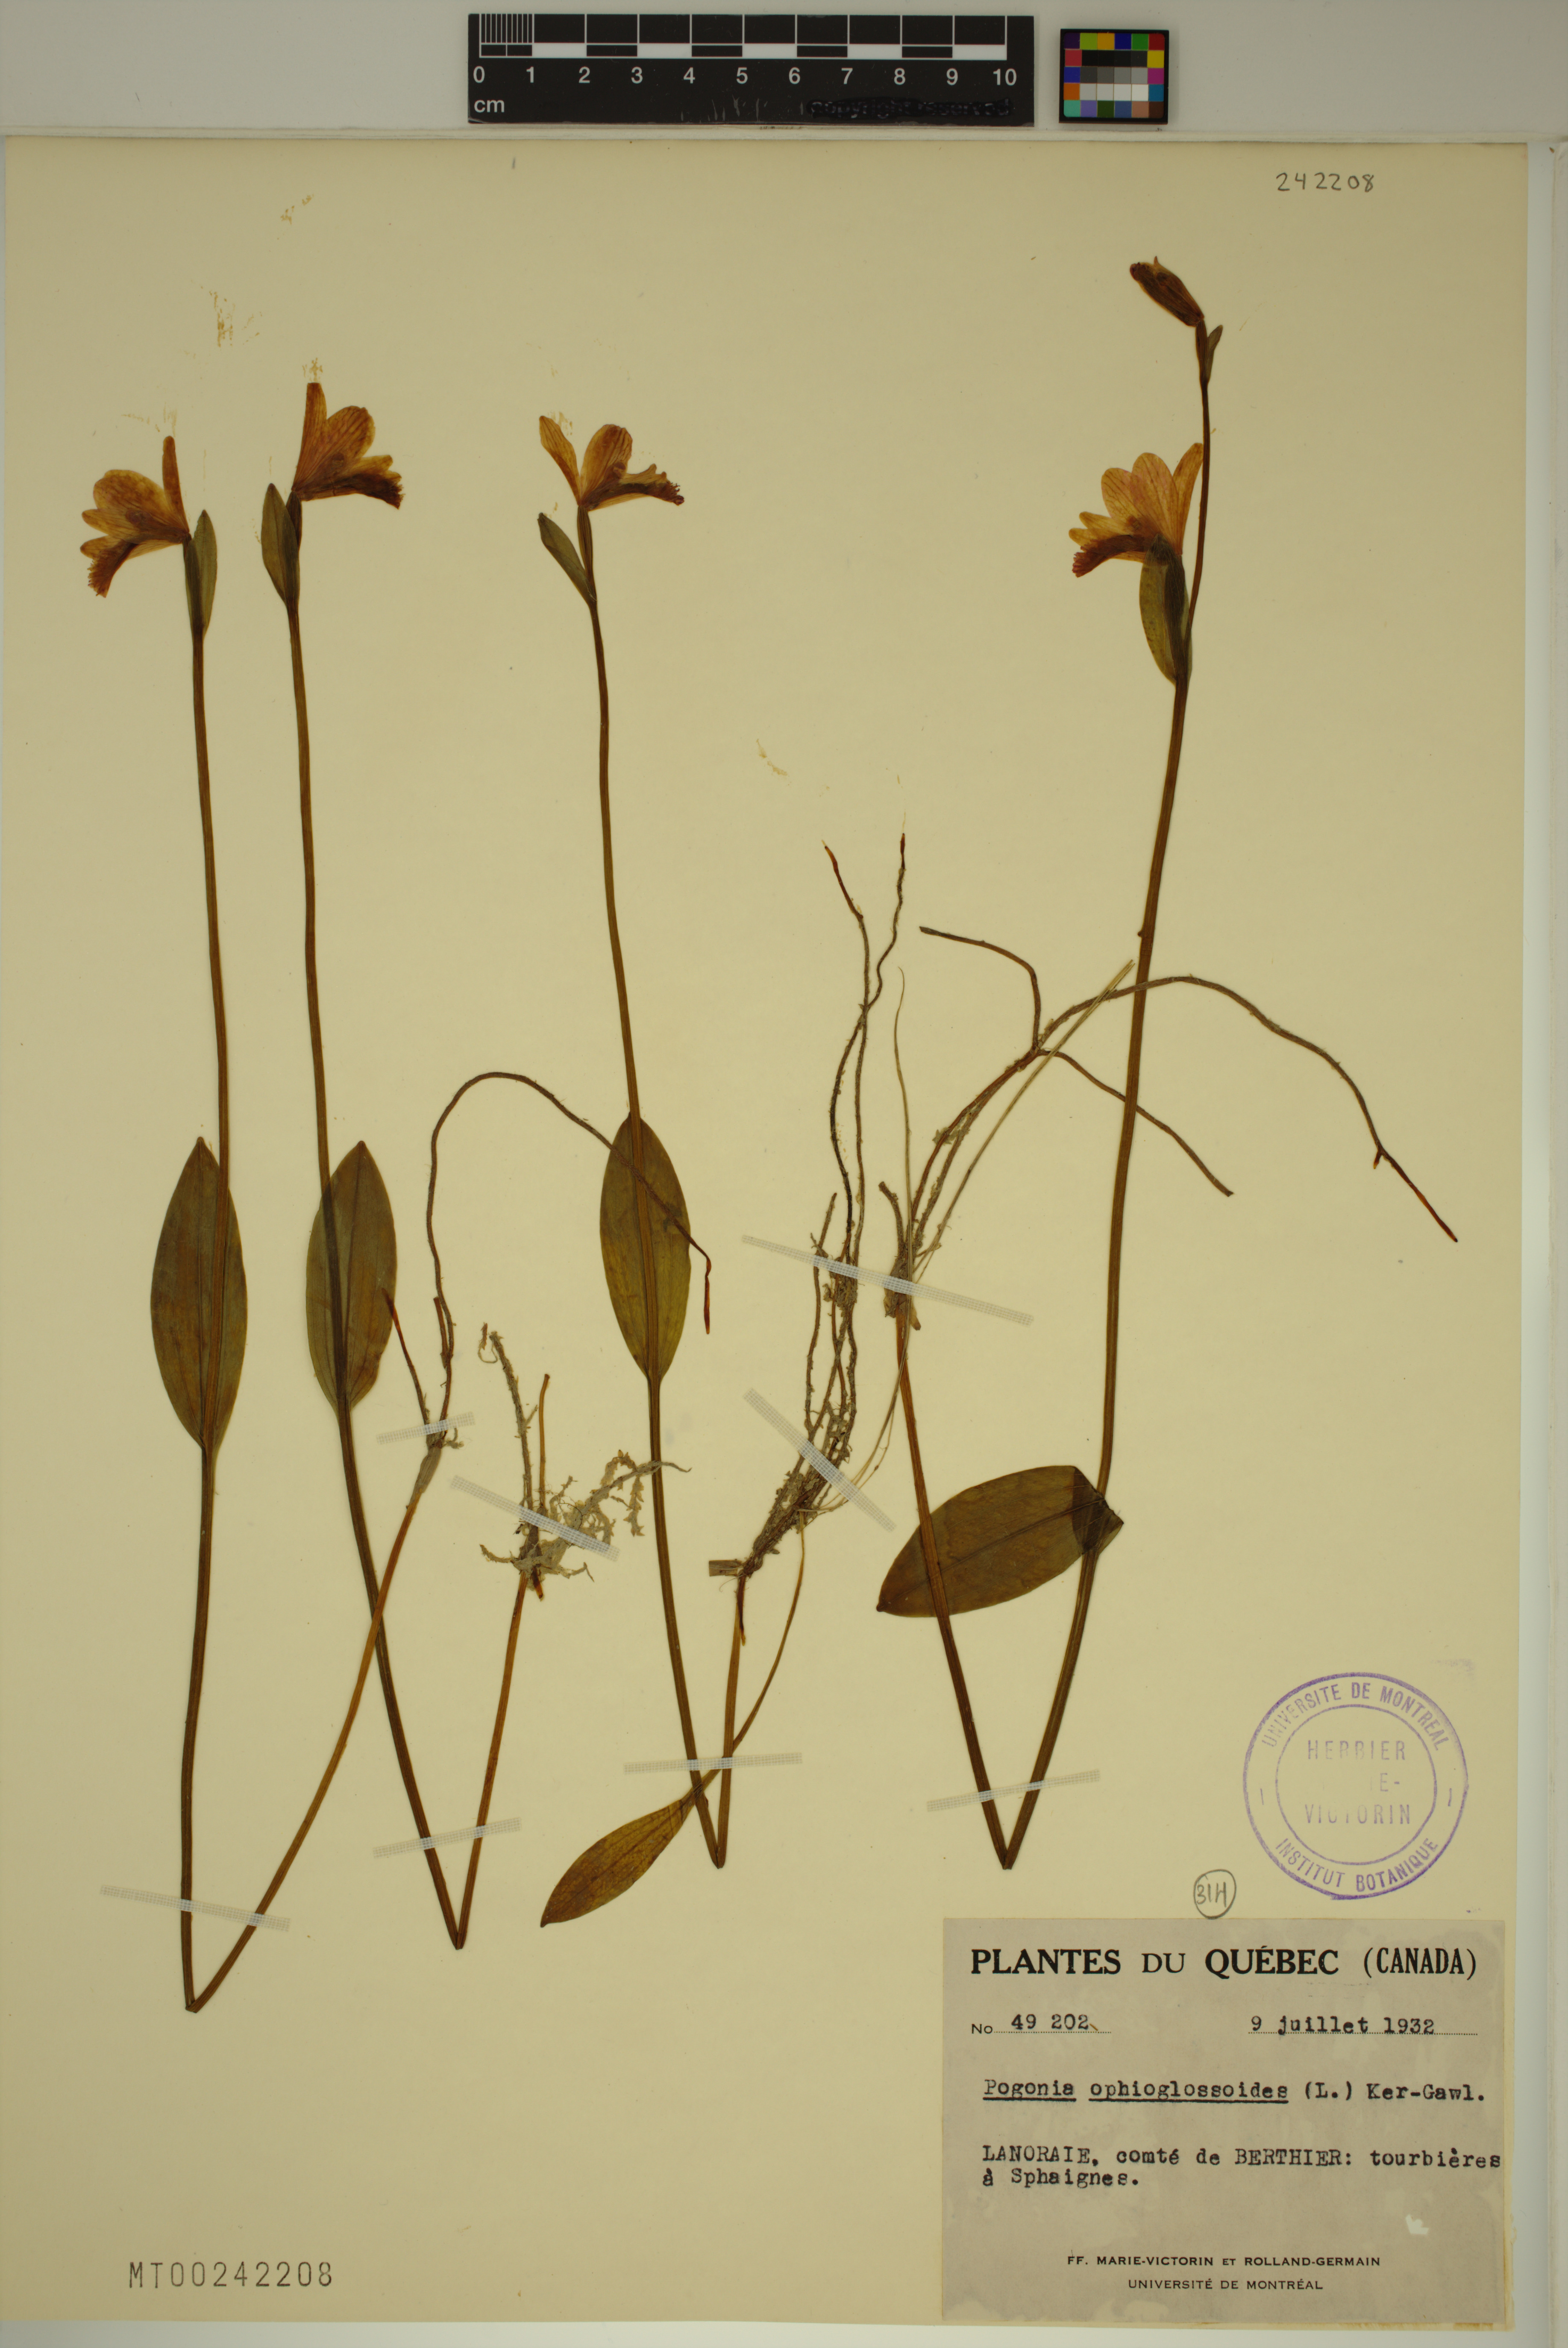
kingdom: Plantae
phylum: Tracheophyta
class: Liliopsida
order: Asparagales
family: Orchidaceae
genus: Pogonia
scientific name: Pogonia ophioglossoides
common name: Rose pogonia
